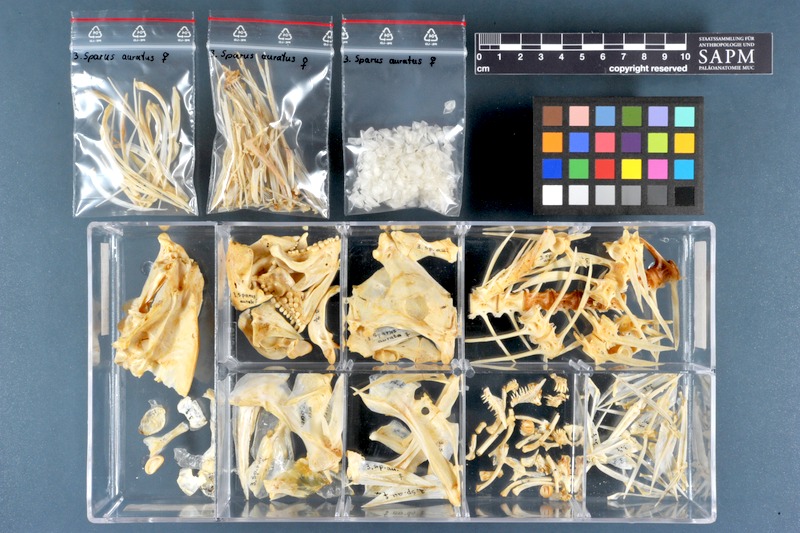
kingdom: Animalia
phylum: Chordata
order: Perciformes
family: Sparidae
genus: Sparus
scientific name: Sparus aurata
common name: Gilthead
